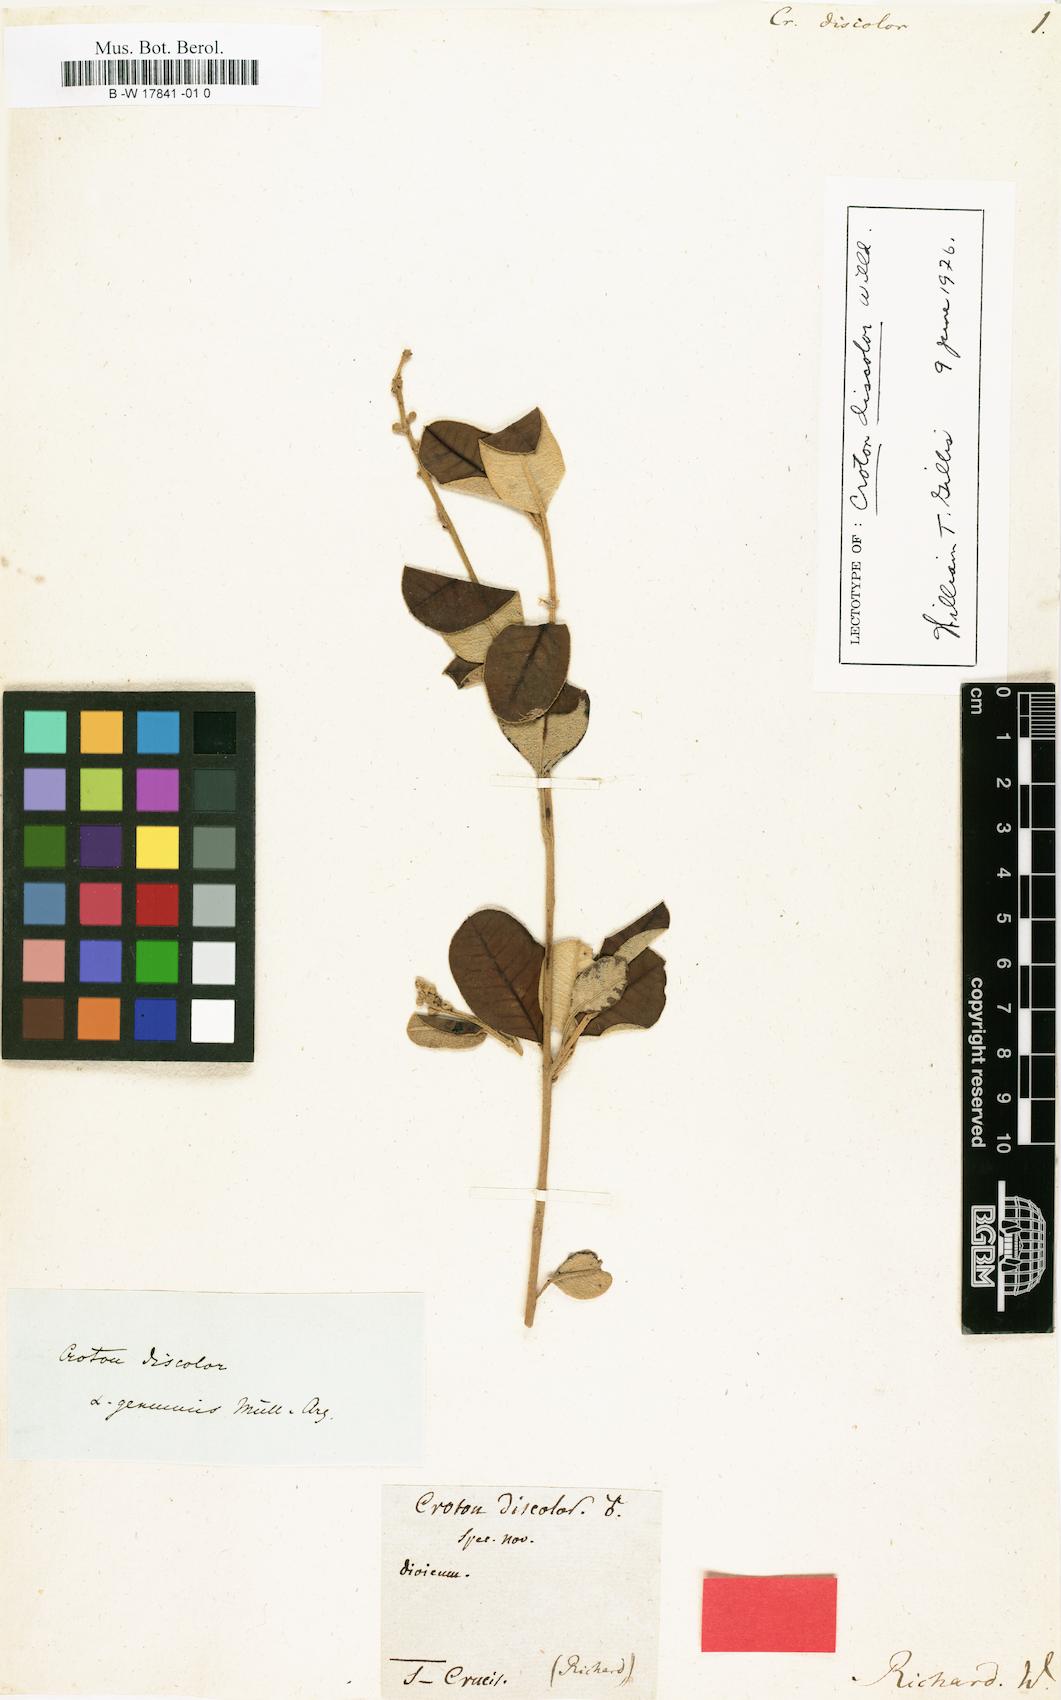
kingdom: Plantae
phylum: Tracheophyta
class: Magnoliopsida
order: Malpighiales
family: Euphorbiaceae
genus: Croton
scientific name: Croton discolor
